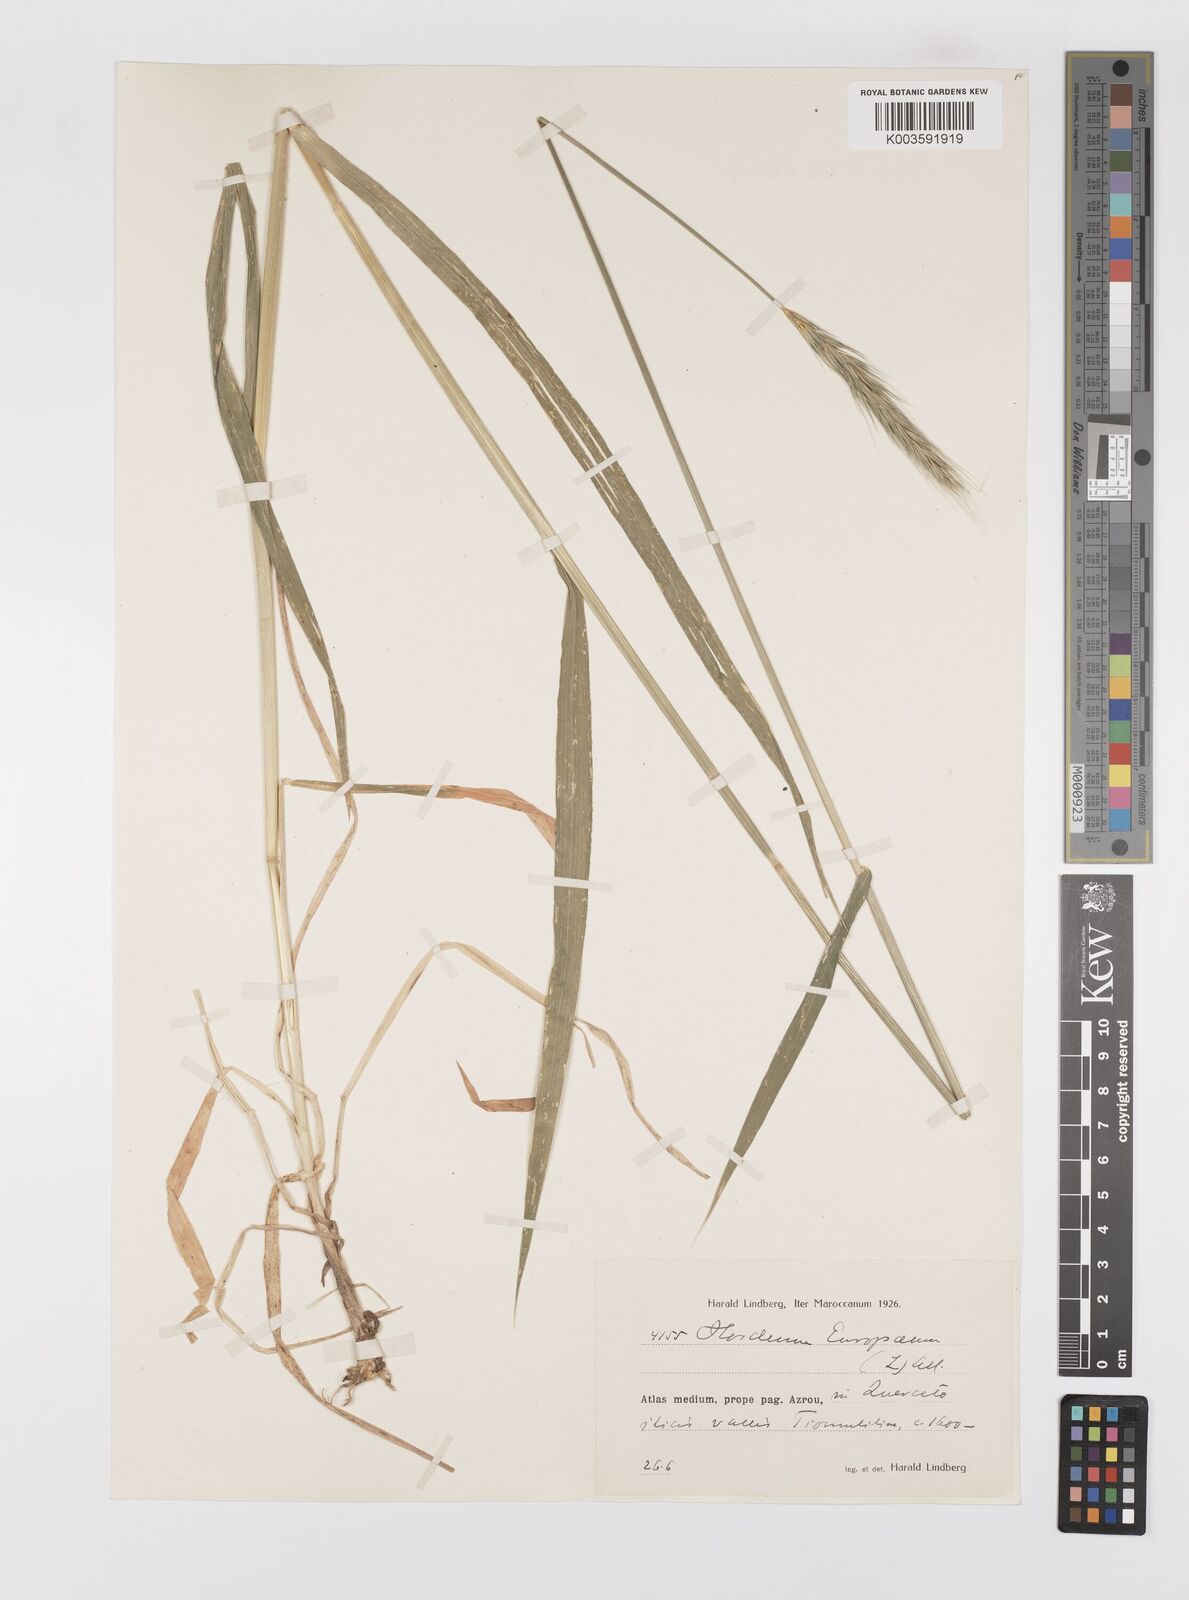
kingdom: Plantae
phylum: Tracheophyta
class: Liliopsida
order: Poales
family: Poaceae
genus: Hordelymus
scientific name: Hordelymus europaeus
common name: Wood-barley
